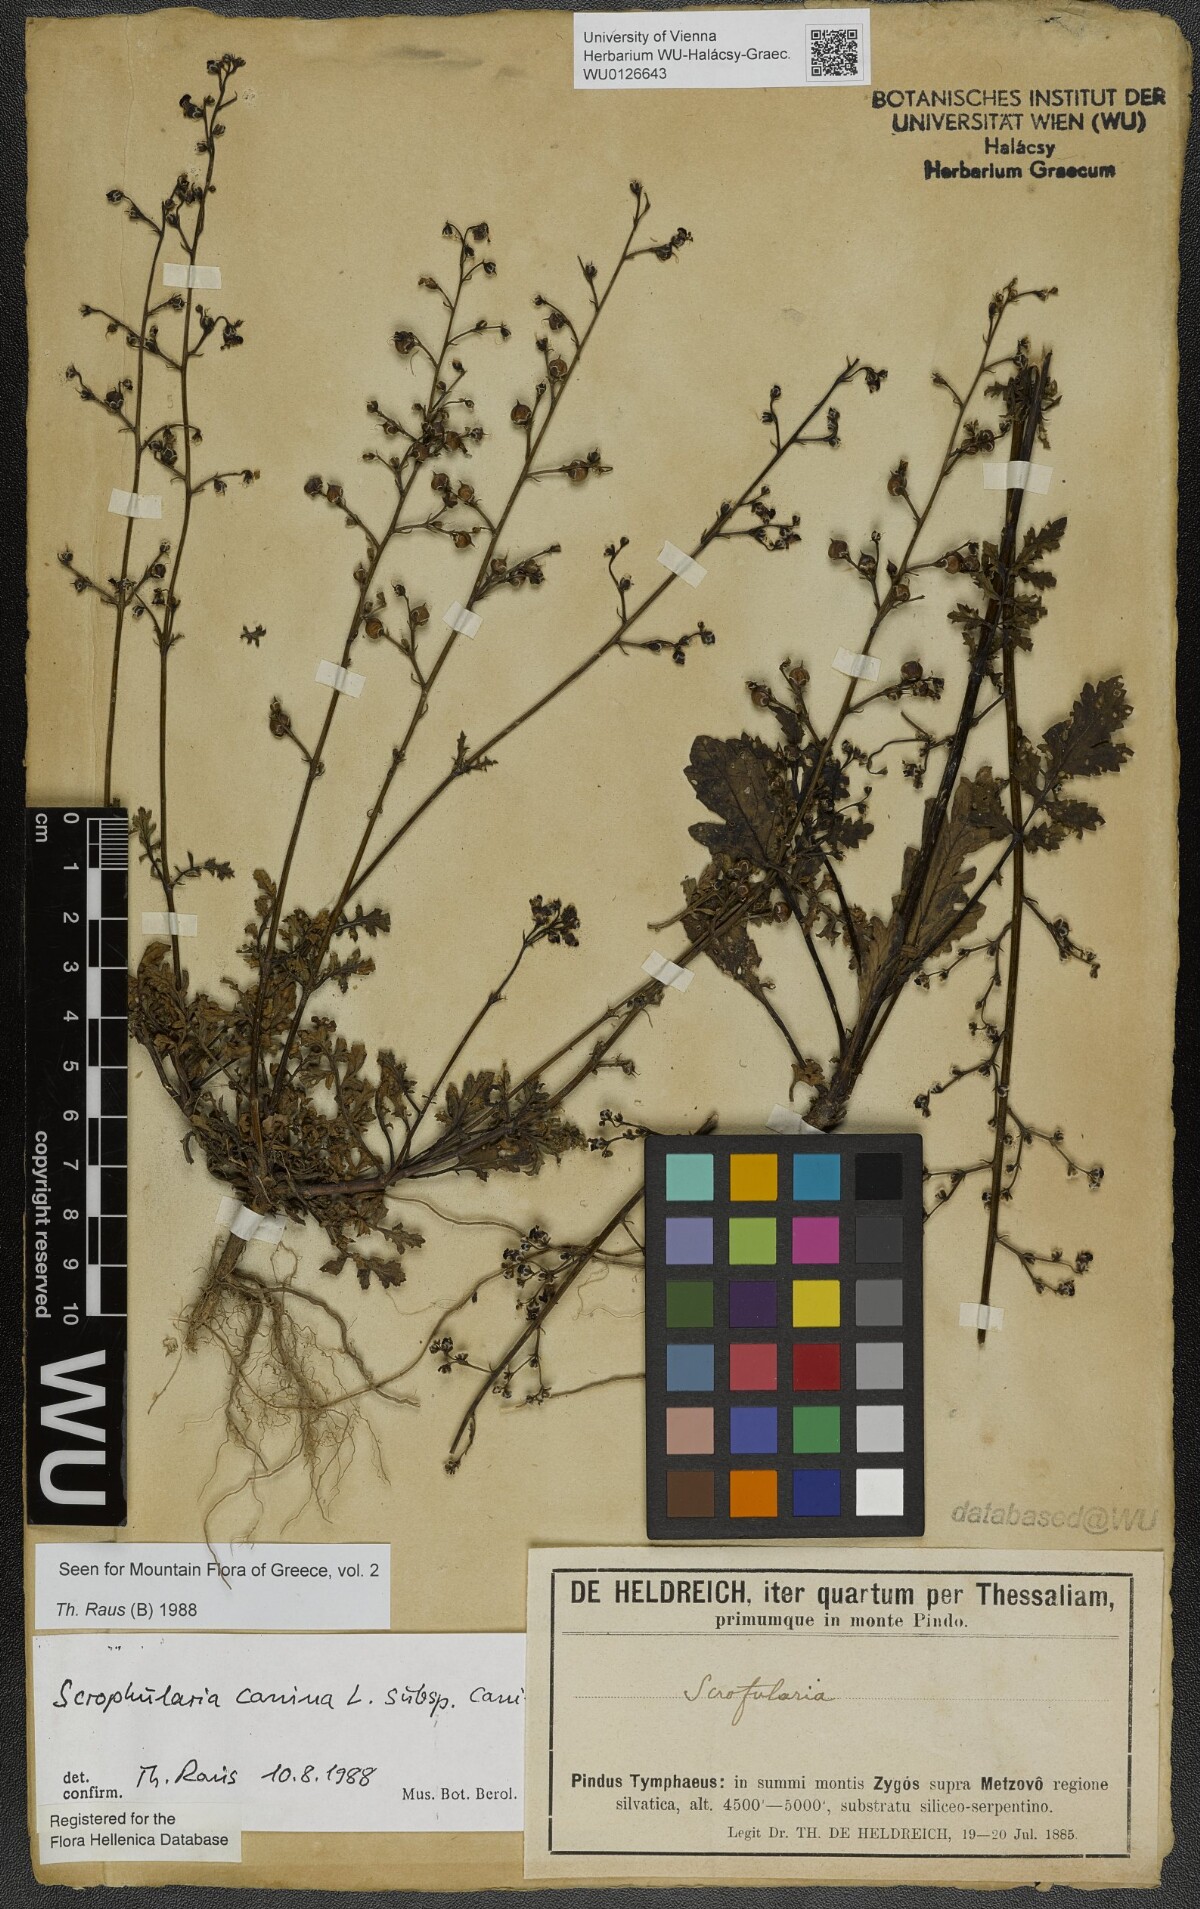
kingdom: Plantae
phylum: Tracheophyta
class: Magnoliopsida
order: Lamiales
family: Scrophulariaceae
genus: Scrophularia
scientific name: Scrophularia canina
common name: French figwort
